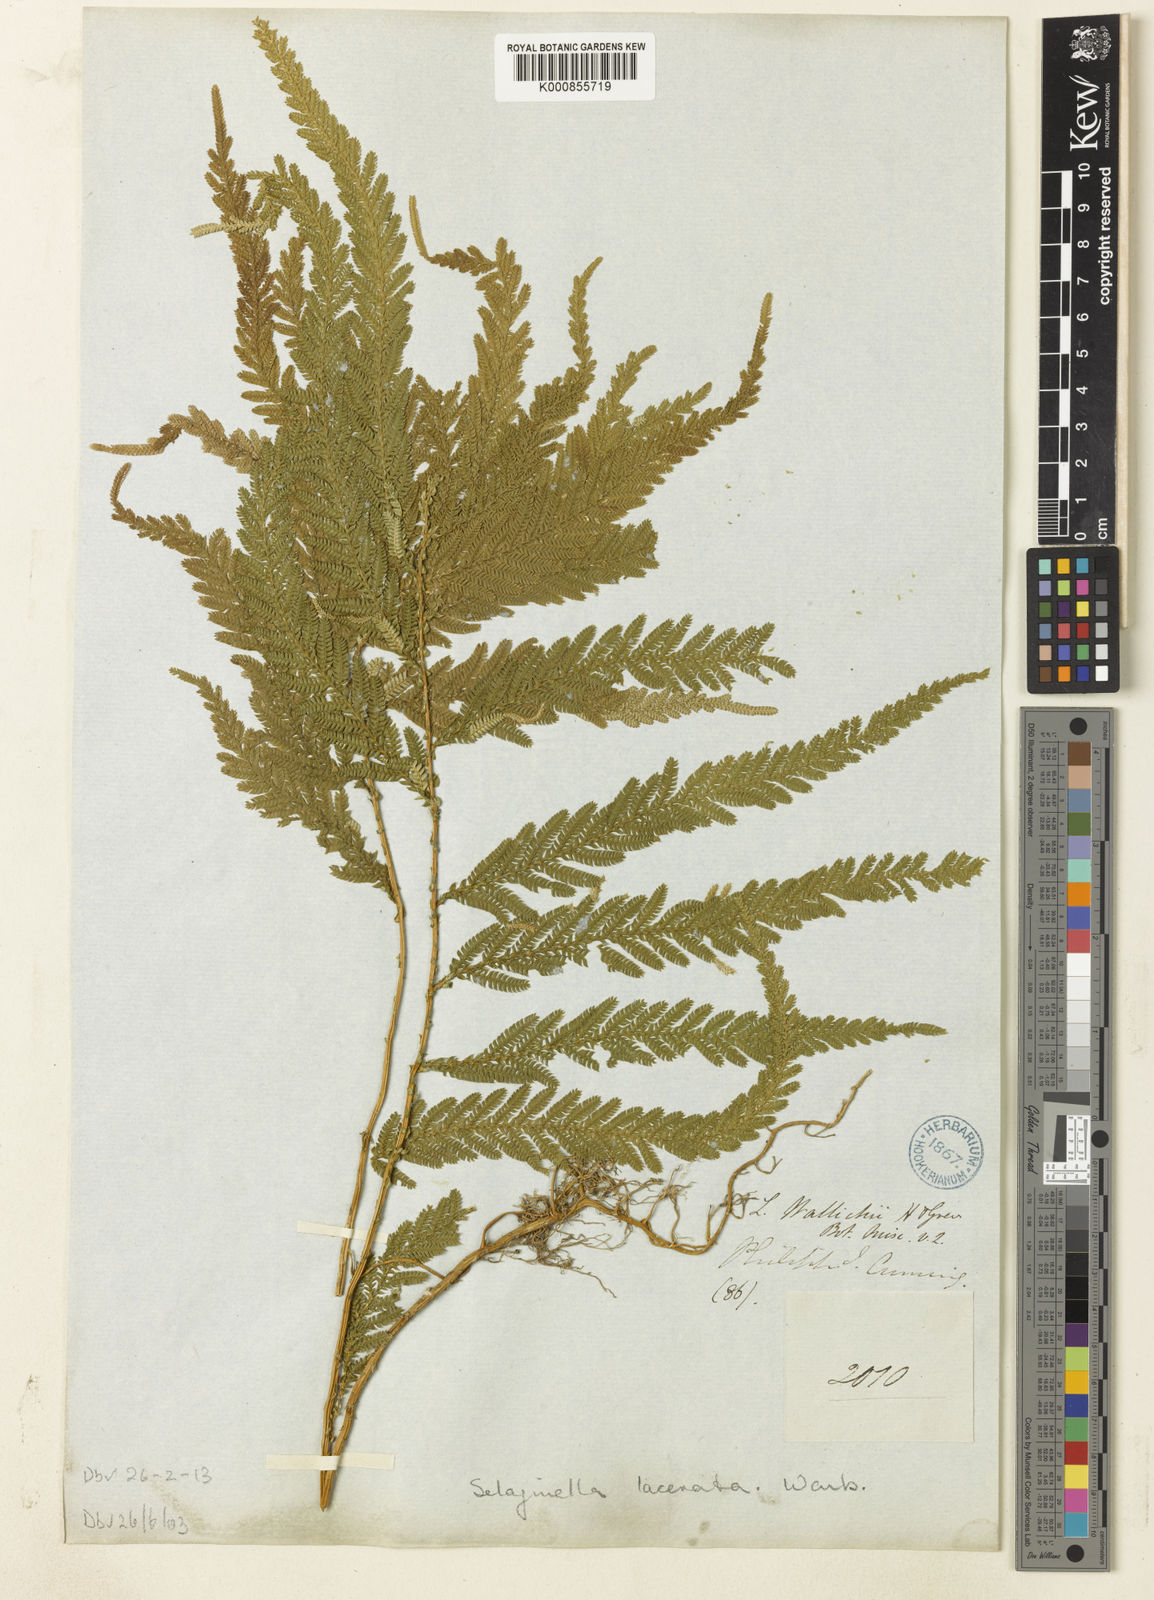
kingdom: Plantae
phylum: Tracheophyta
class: Lycopodiopsida
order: Selaginellales
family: Selaginellaceae
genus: Selaginella
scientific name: Selaginella lacerata
